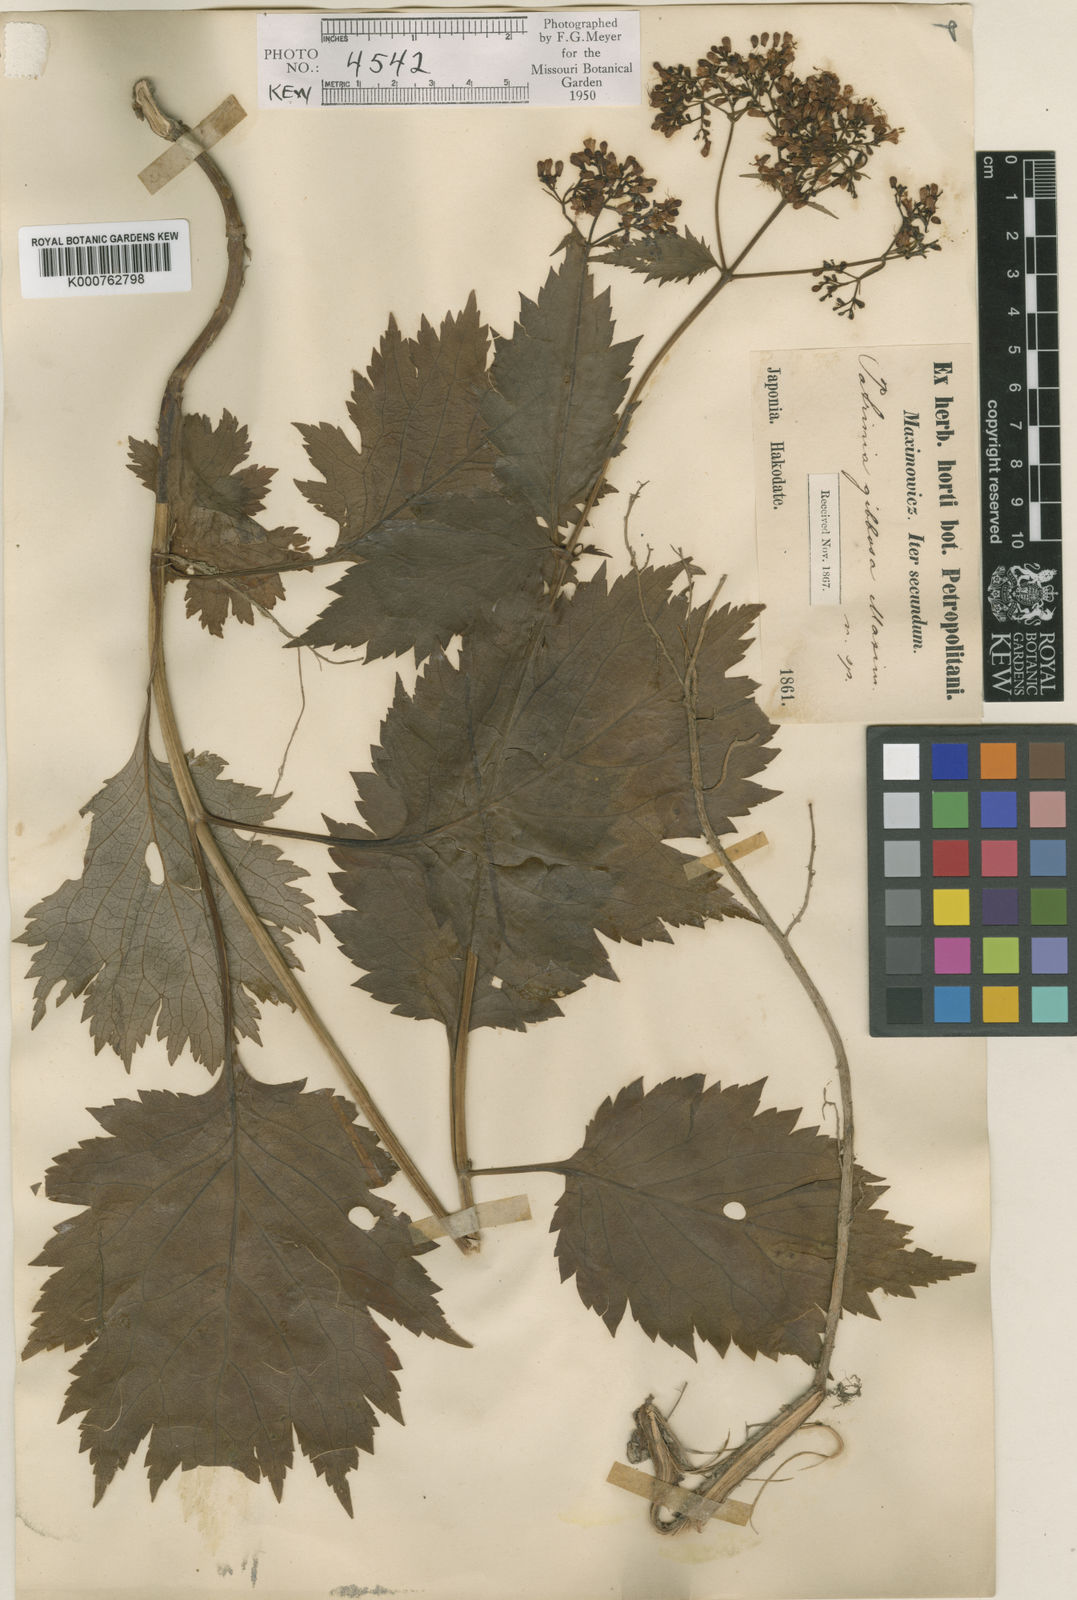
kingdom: Plantae
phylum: Tracheophyta
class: Magnoliopsida
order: Dipsacales
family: Caprifoliaceae
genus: Patrinia
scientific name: Patrinia gibbosa
